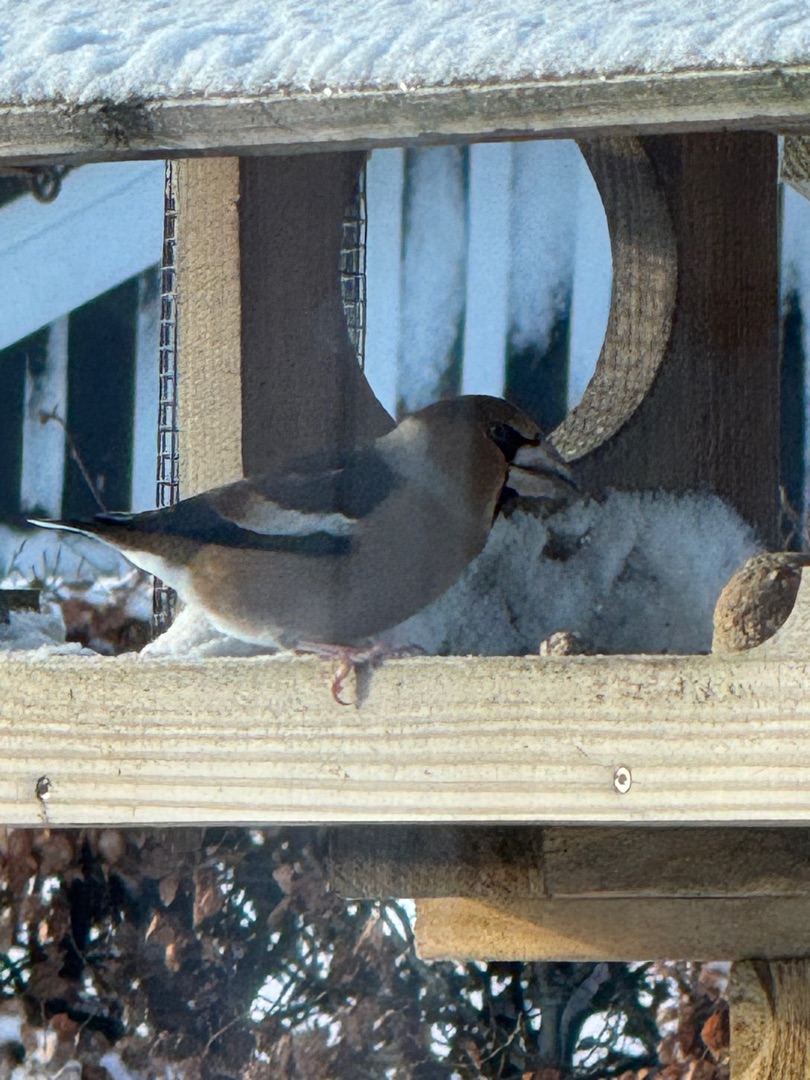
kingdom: Animalia
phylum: Chordata
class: Aves
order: Passeriformes
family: Fringillidae
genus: Coccothraustes
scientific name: Coccothraustes coccothraustes
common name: Kernebider
